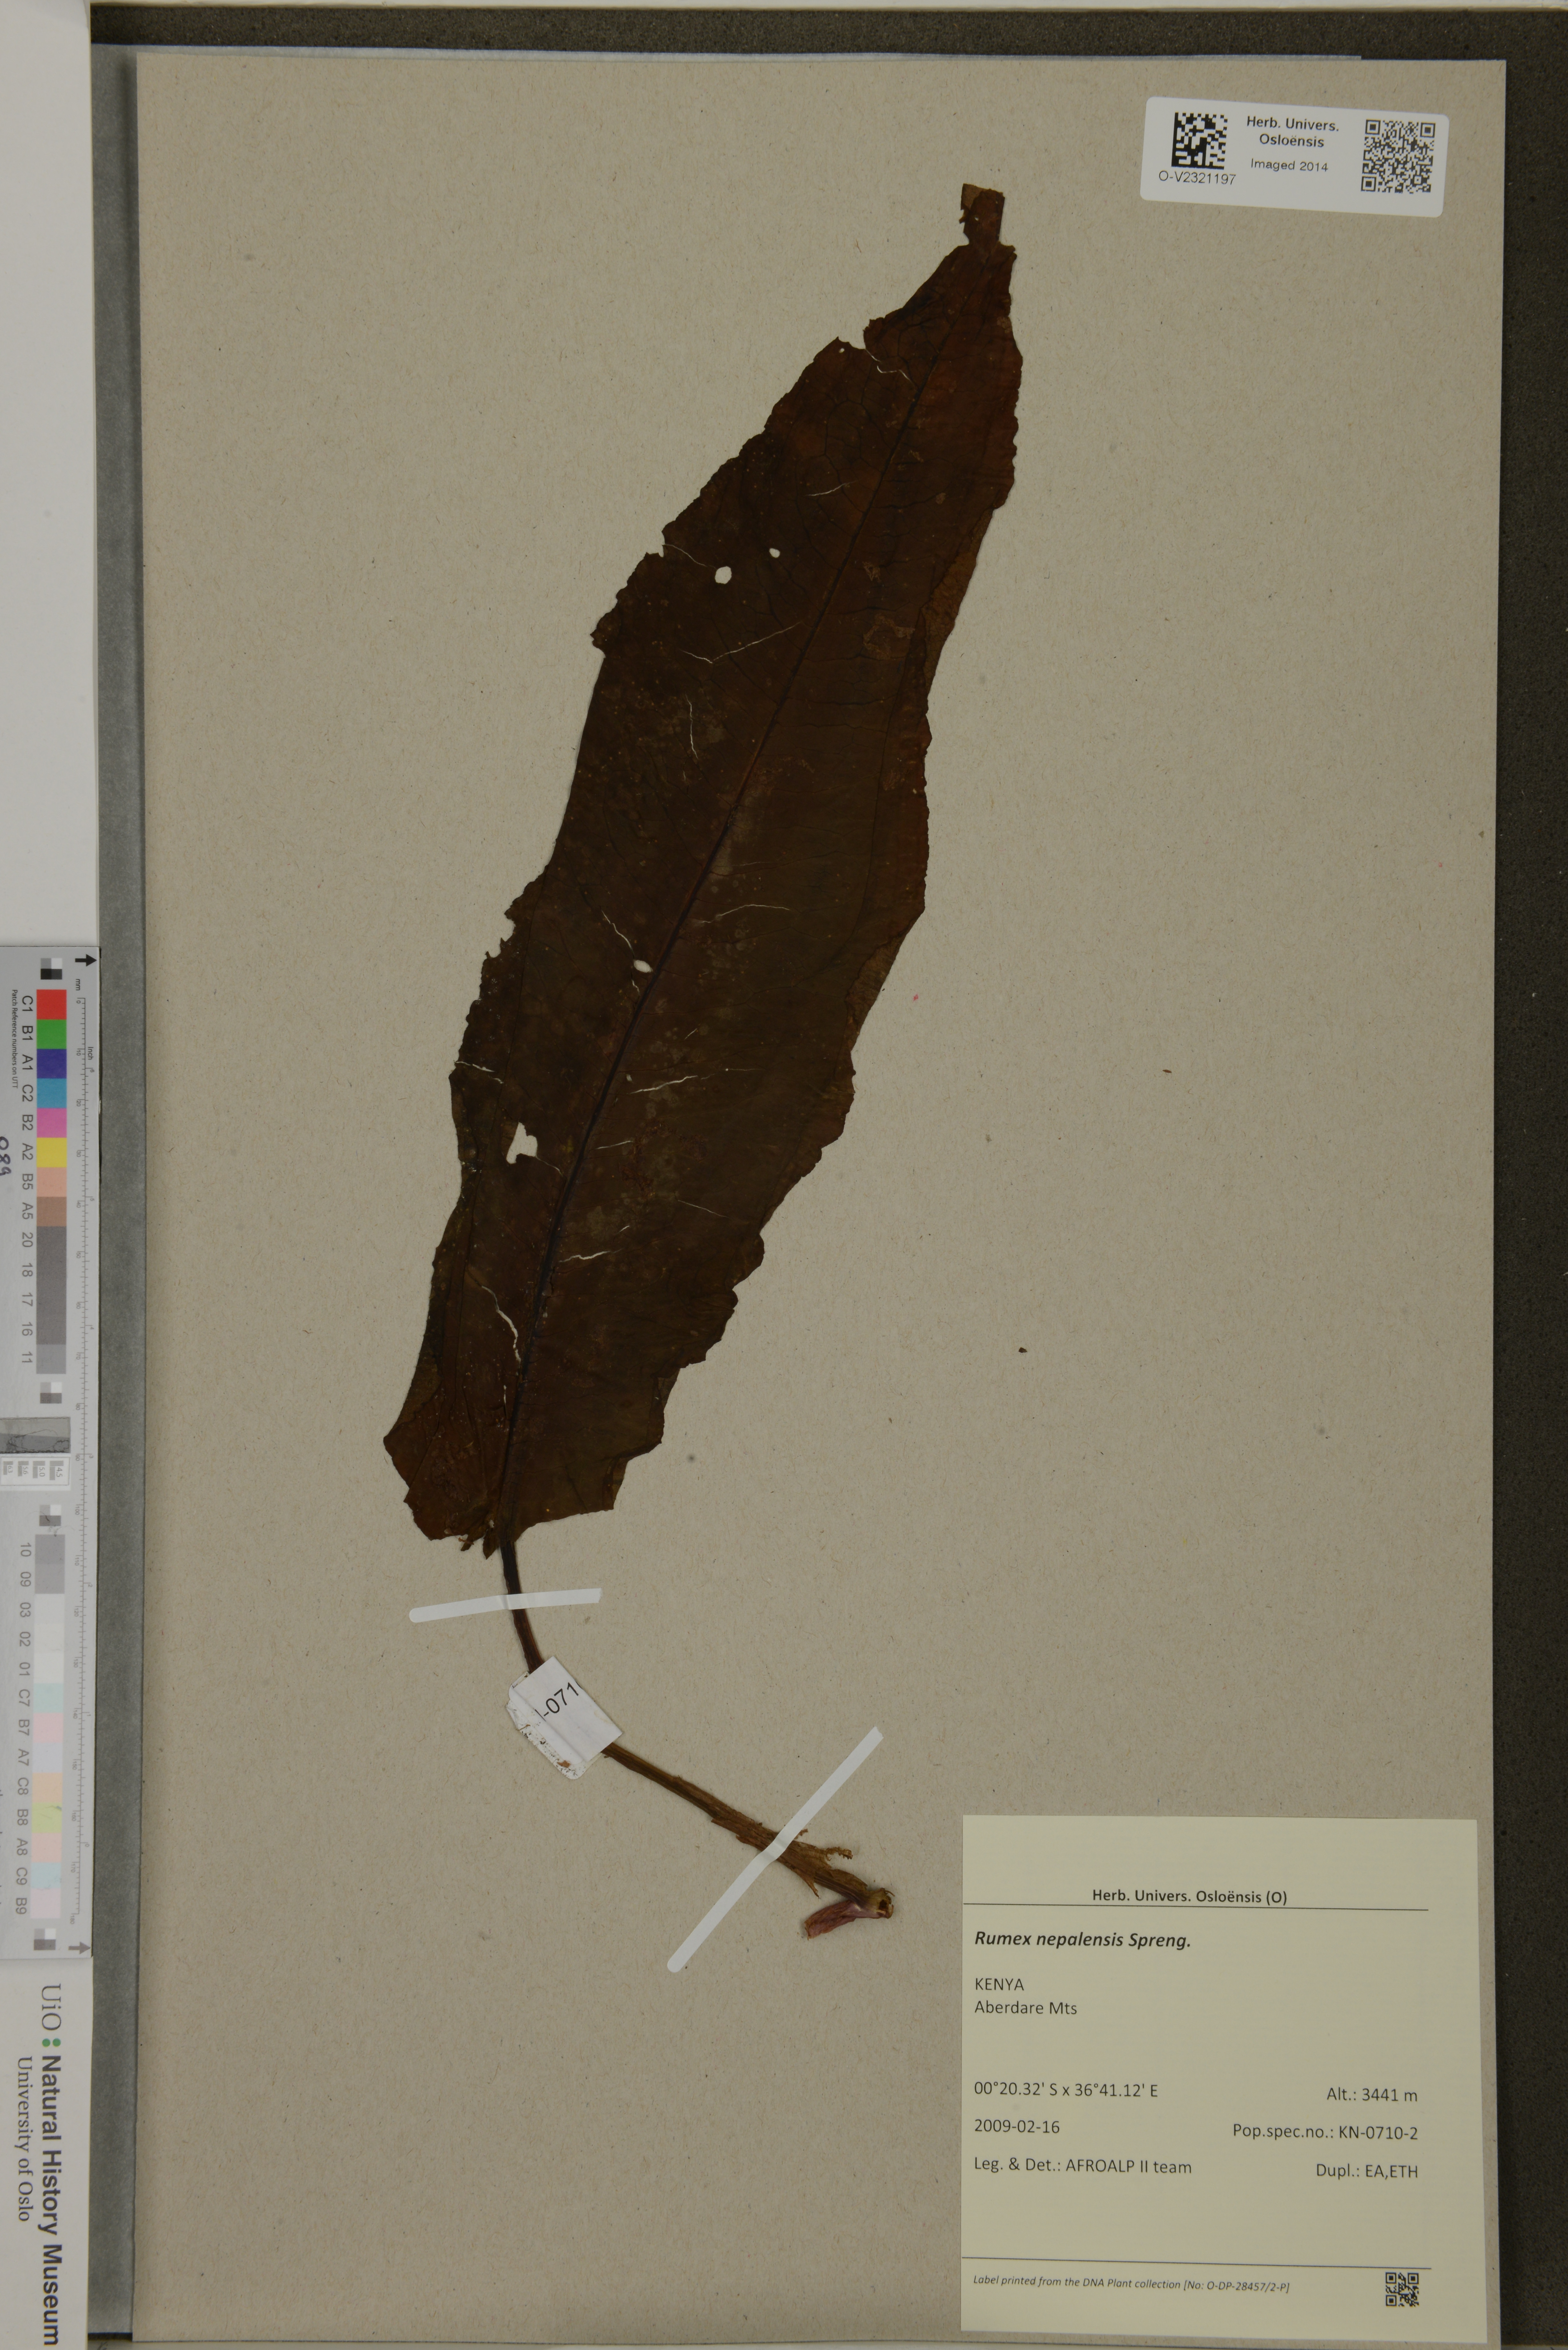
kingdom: Plantae
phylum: Tracheophyta
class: Magnoliopsida
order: Caryophyllales
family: Polygonaceae
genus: Rumex
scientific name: Rumex nepalensis
